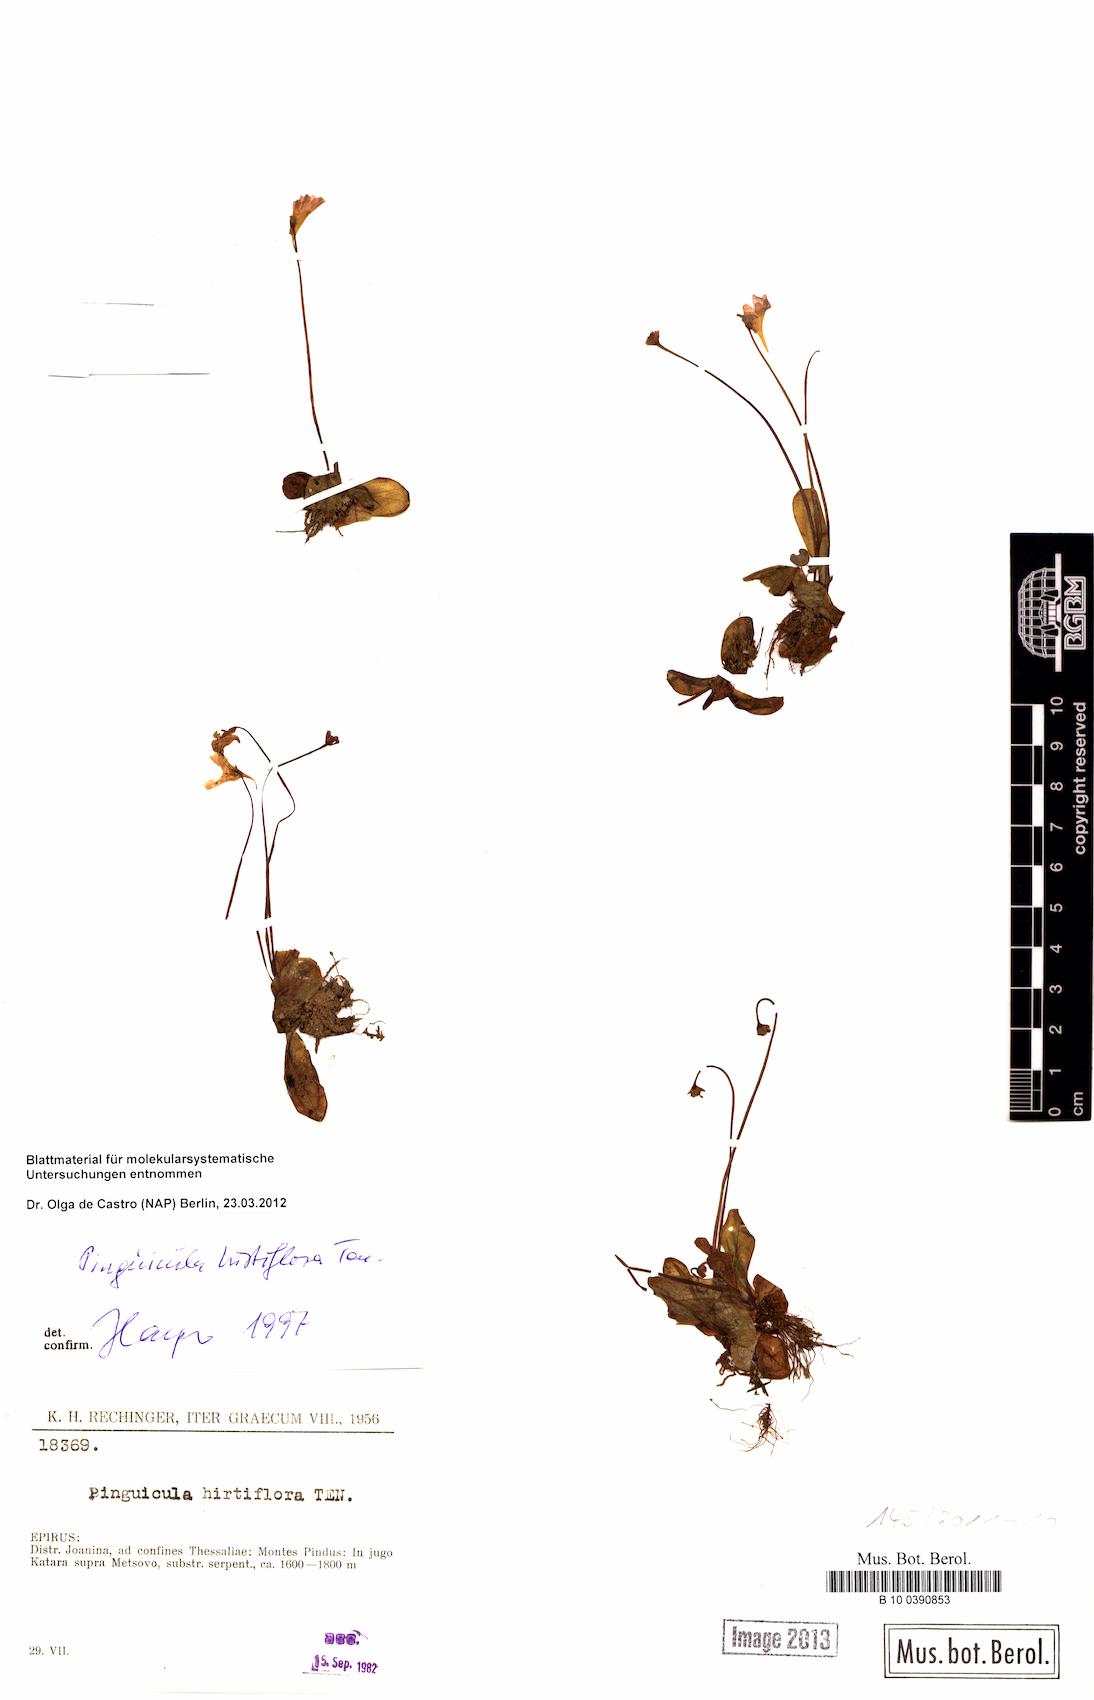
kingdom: Plantae
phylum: Tracheophyta
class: Magnoliopsida
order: Lamiales
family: Lentibulariaceae
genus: Pinguicula
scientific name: Pinguicula crystallina
